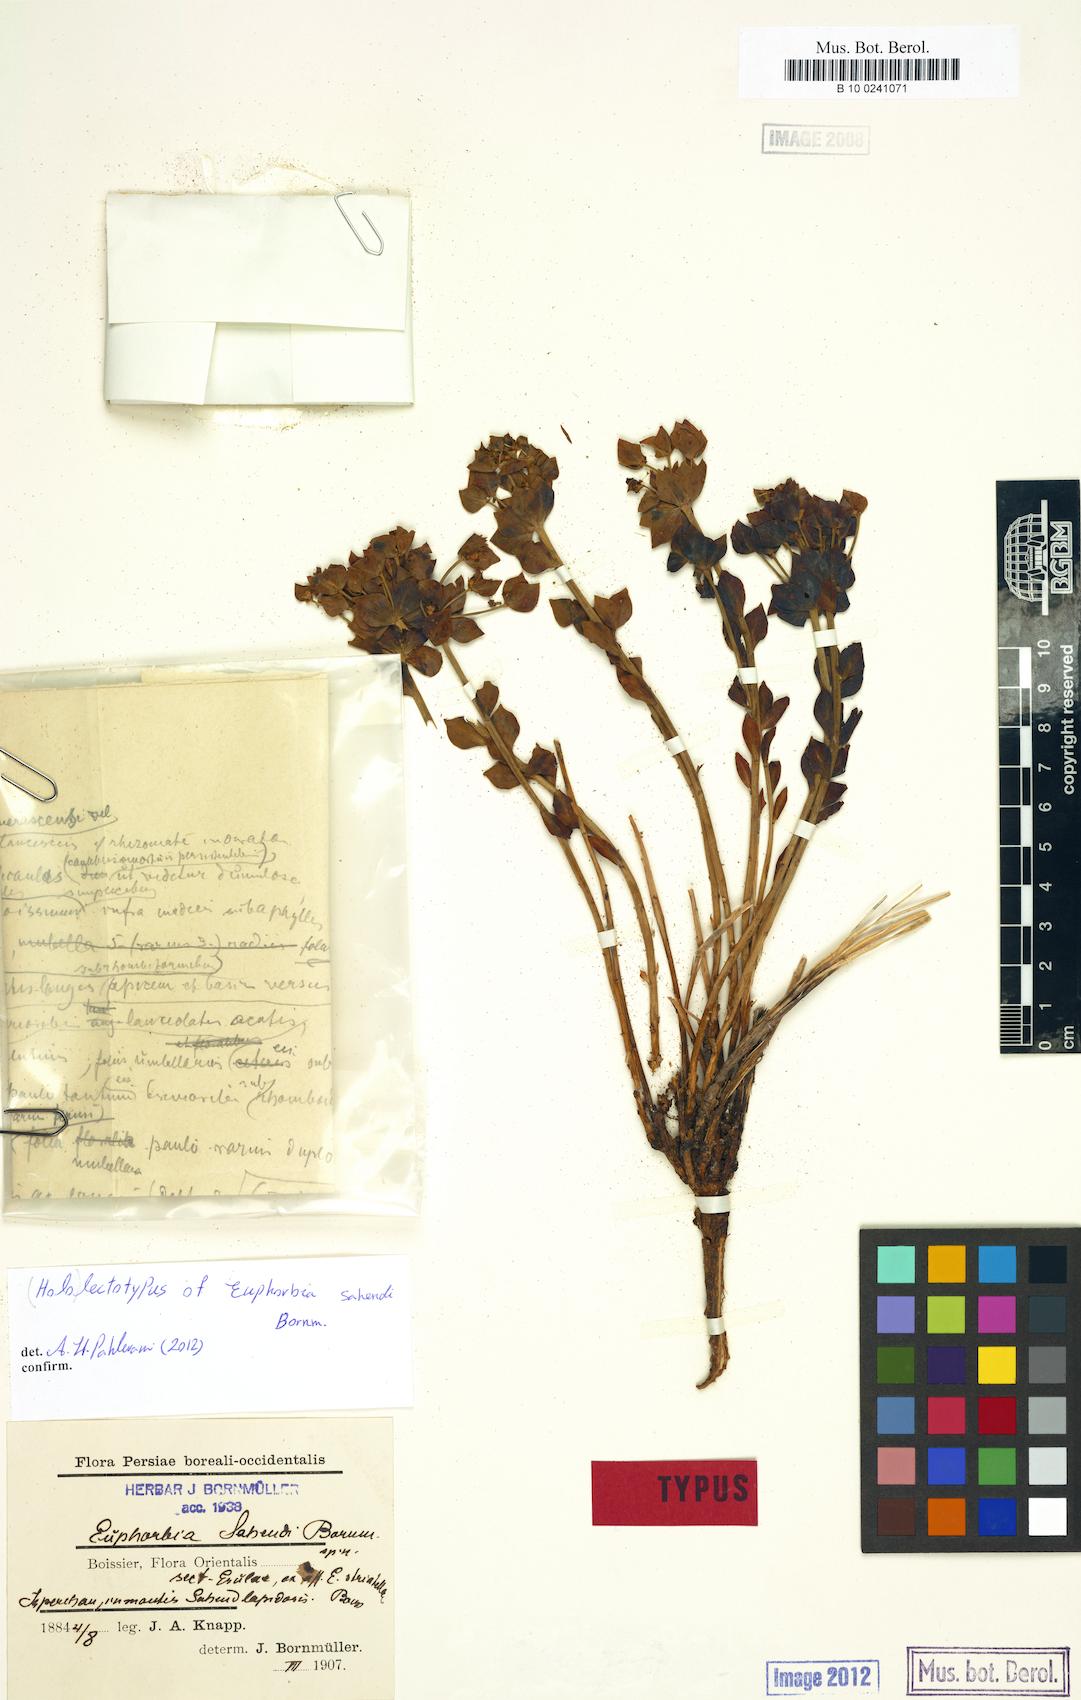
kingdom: Plantae
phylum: Tracheophyta
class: Magnoliopsida
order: Malpighiales
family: Euphorbiaceae
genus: Euphorbia
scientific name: Euphorbia sahendi
